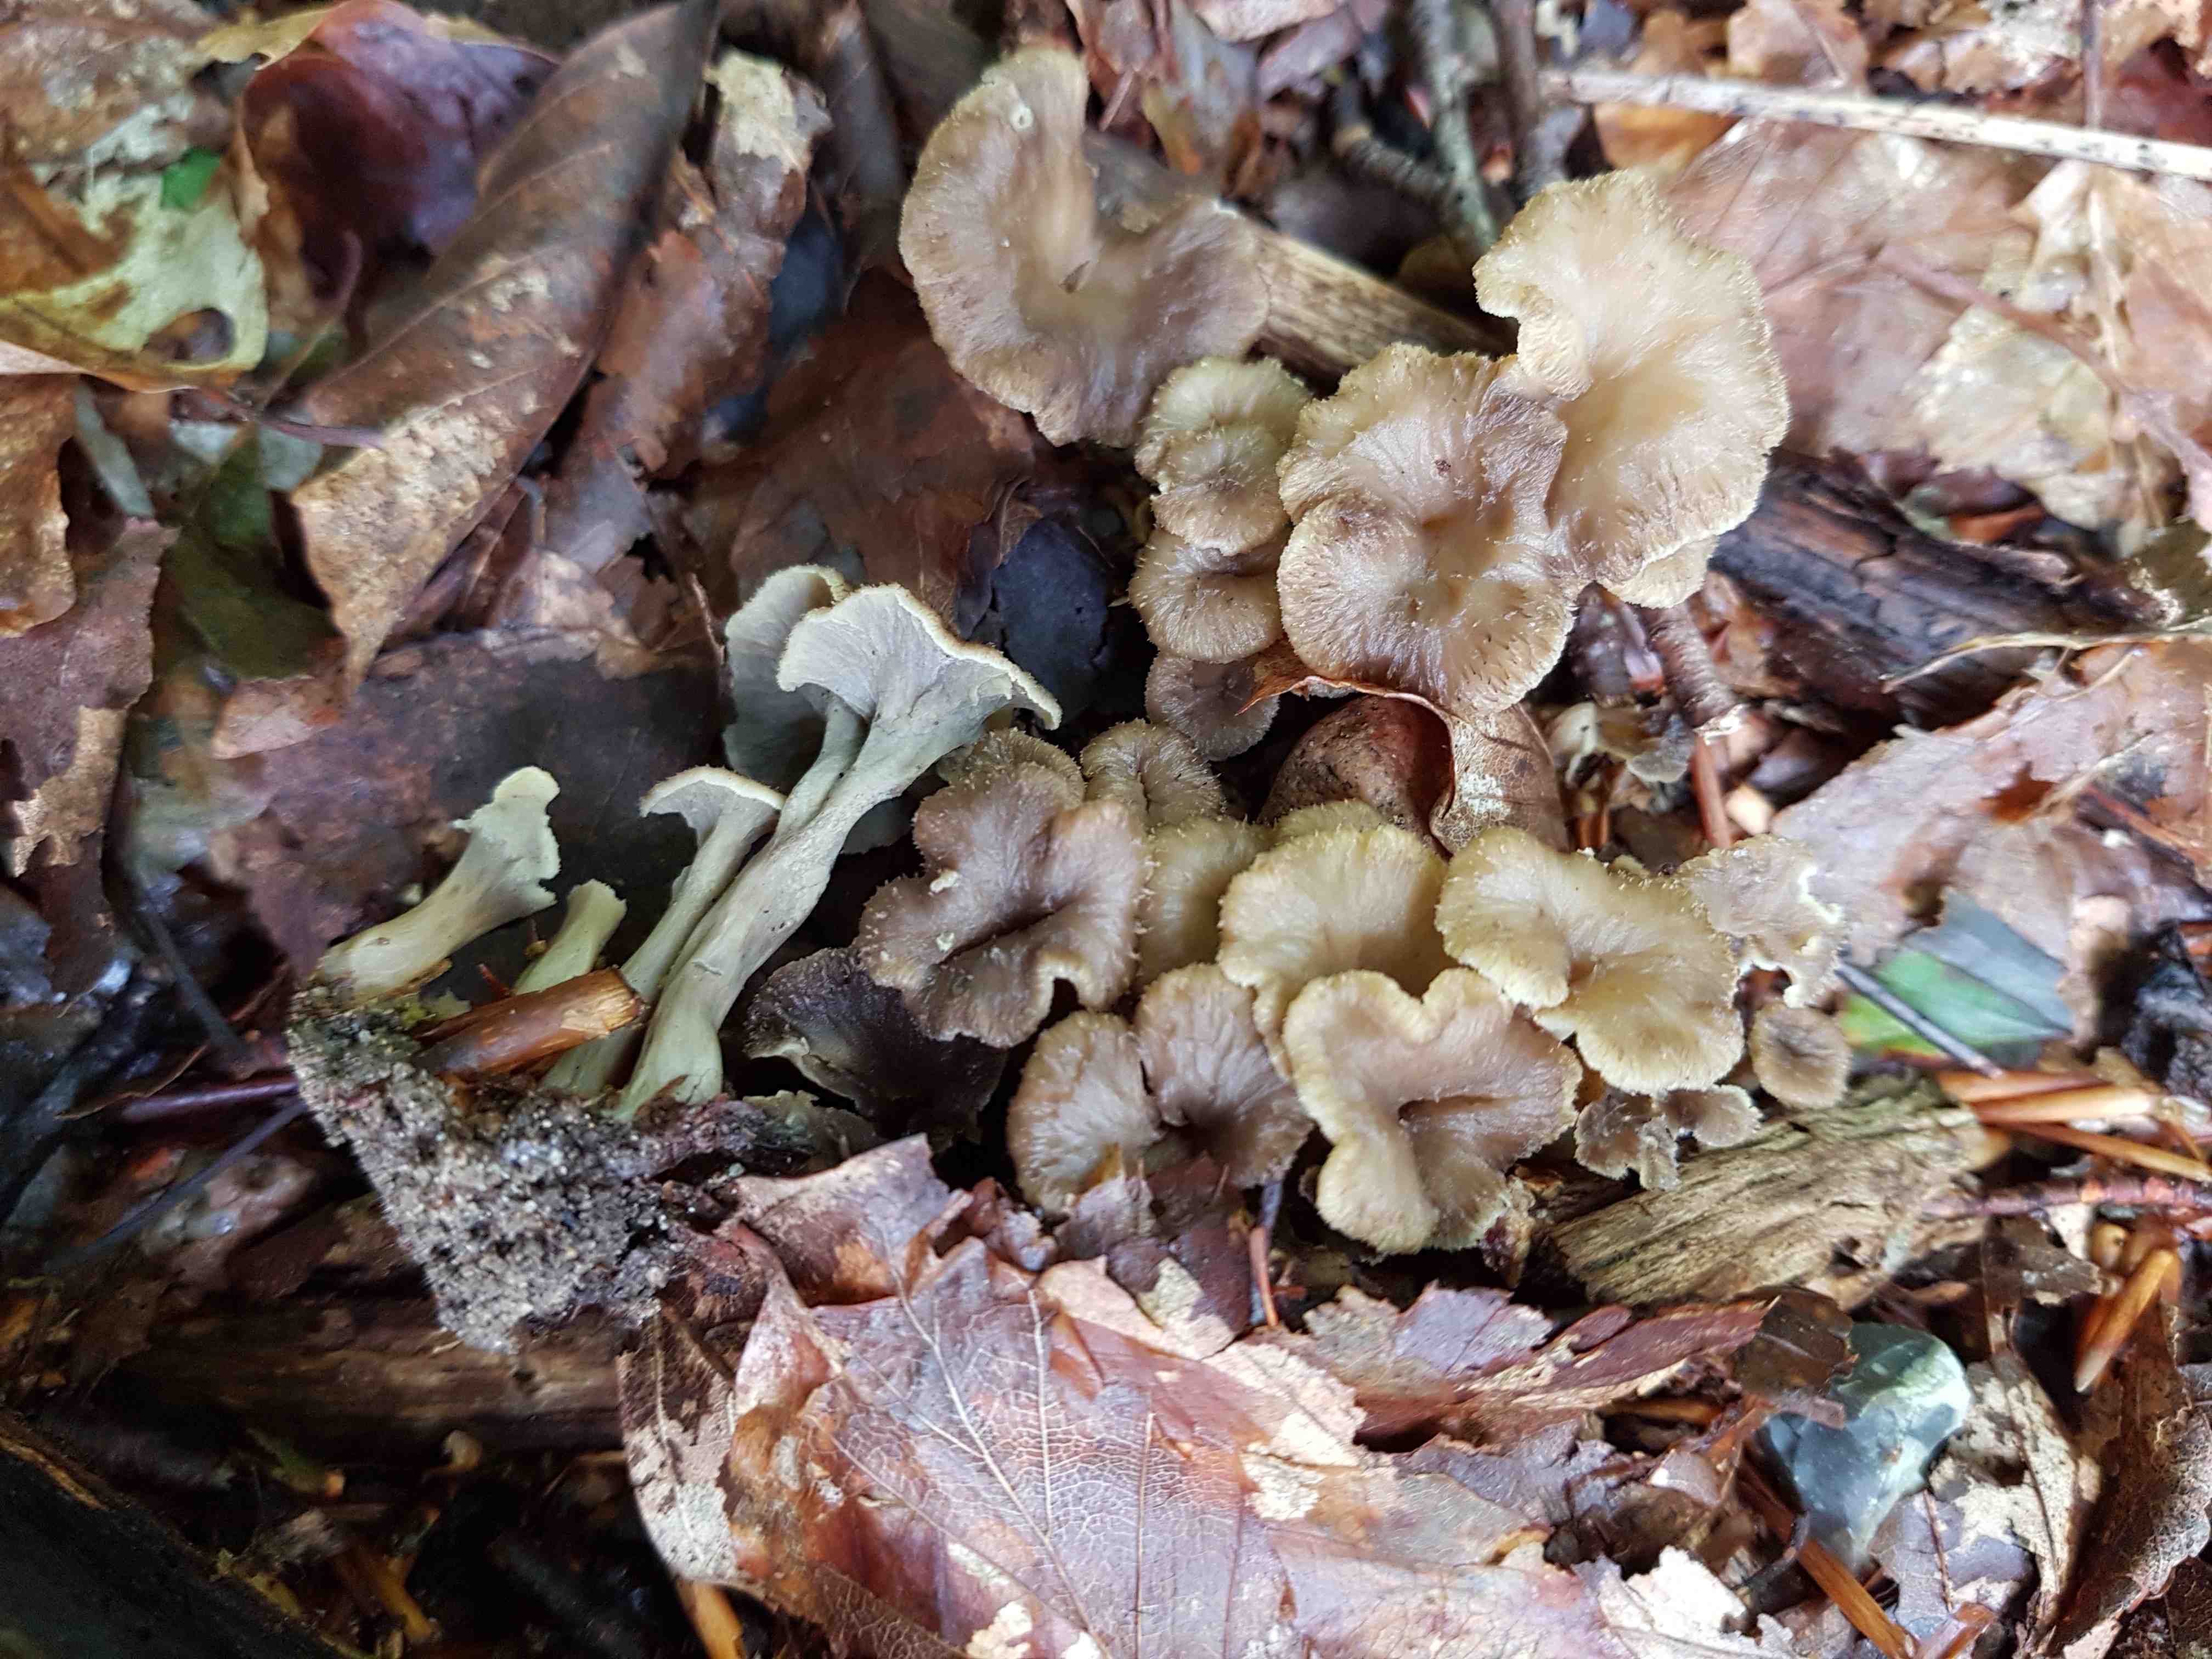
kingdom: Fungi
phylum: Basidiomycota
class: Agaricomycetes
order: Cantharellales
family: Hydnaceae
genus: Craterellus
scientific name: Craterellus undulatus
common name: liden kantarel
